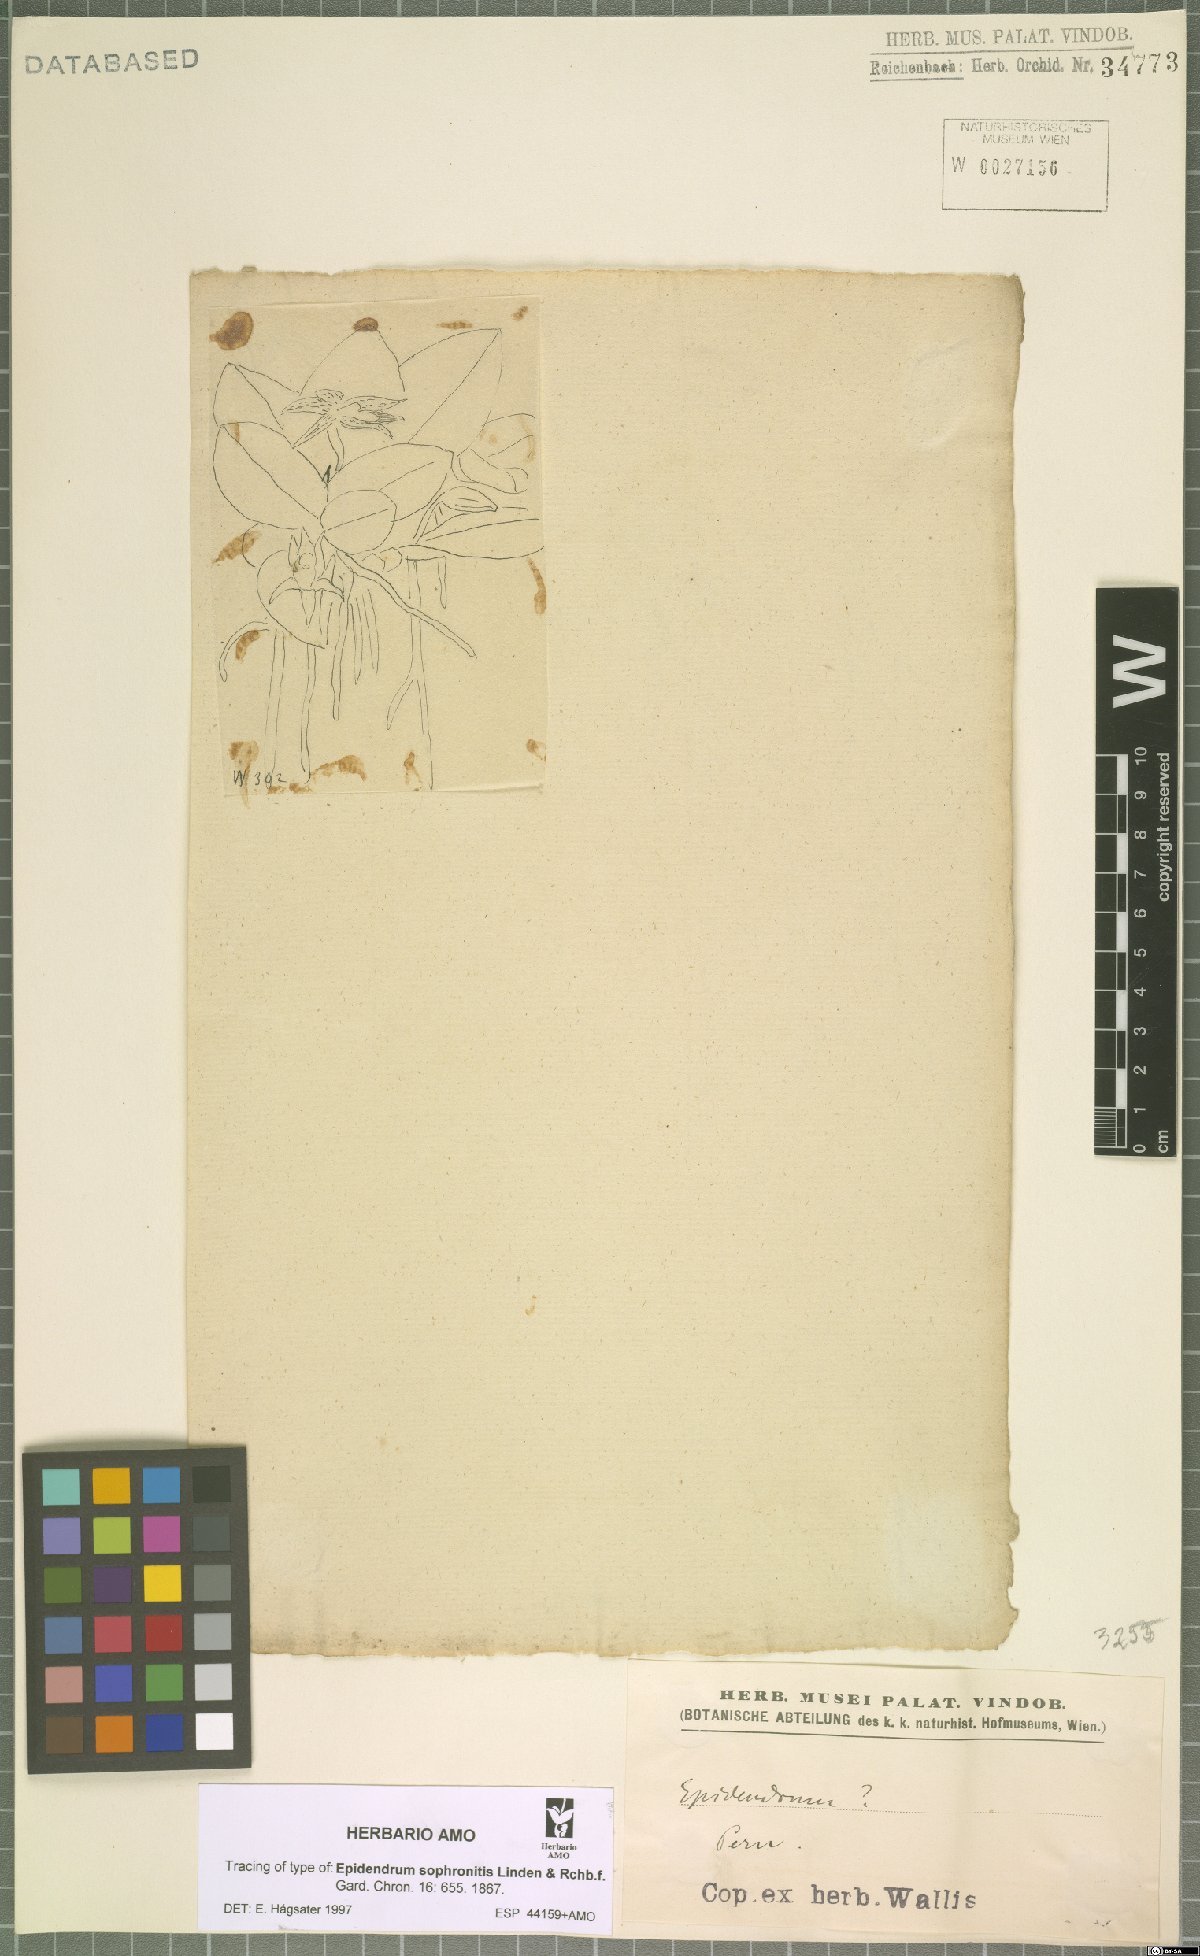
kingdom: Plantae
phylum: Tracheophyta
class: Liliopsida
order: Asparagales
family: Orchidaceae
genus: Epidendrum
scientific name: Epidendrum sophronitis
